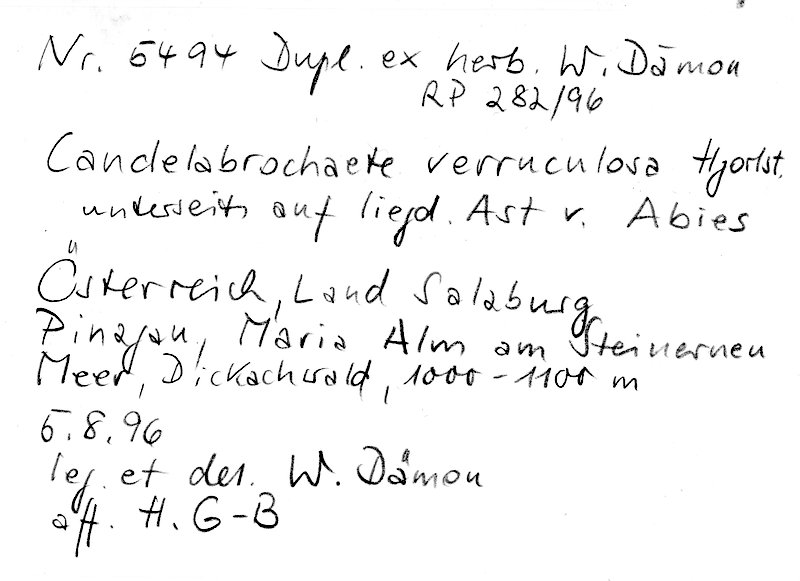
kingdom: Plantae
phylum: Tracheophyta
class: Pinopsida
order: Pinales
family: Pinaceae
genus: Abies
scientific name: Abies
